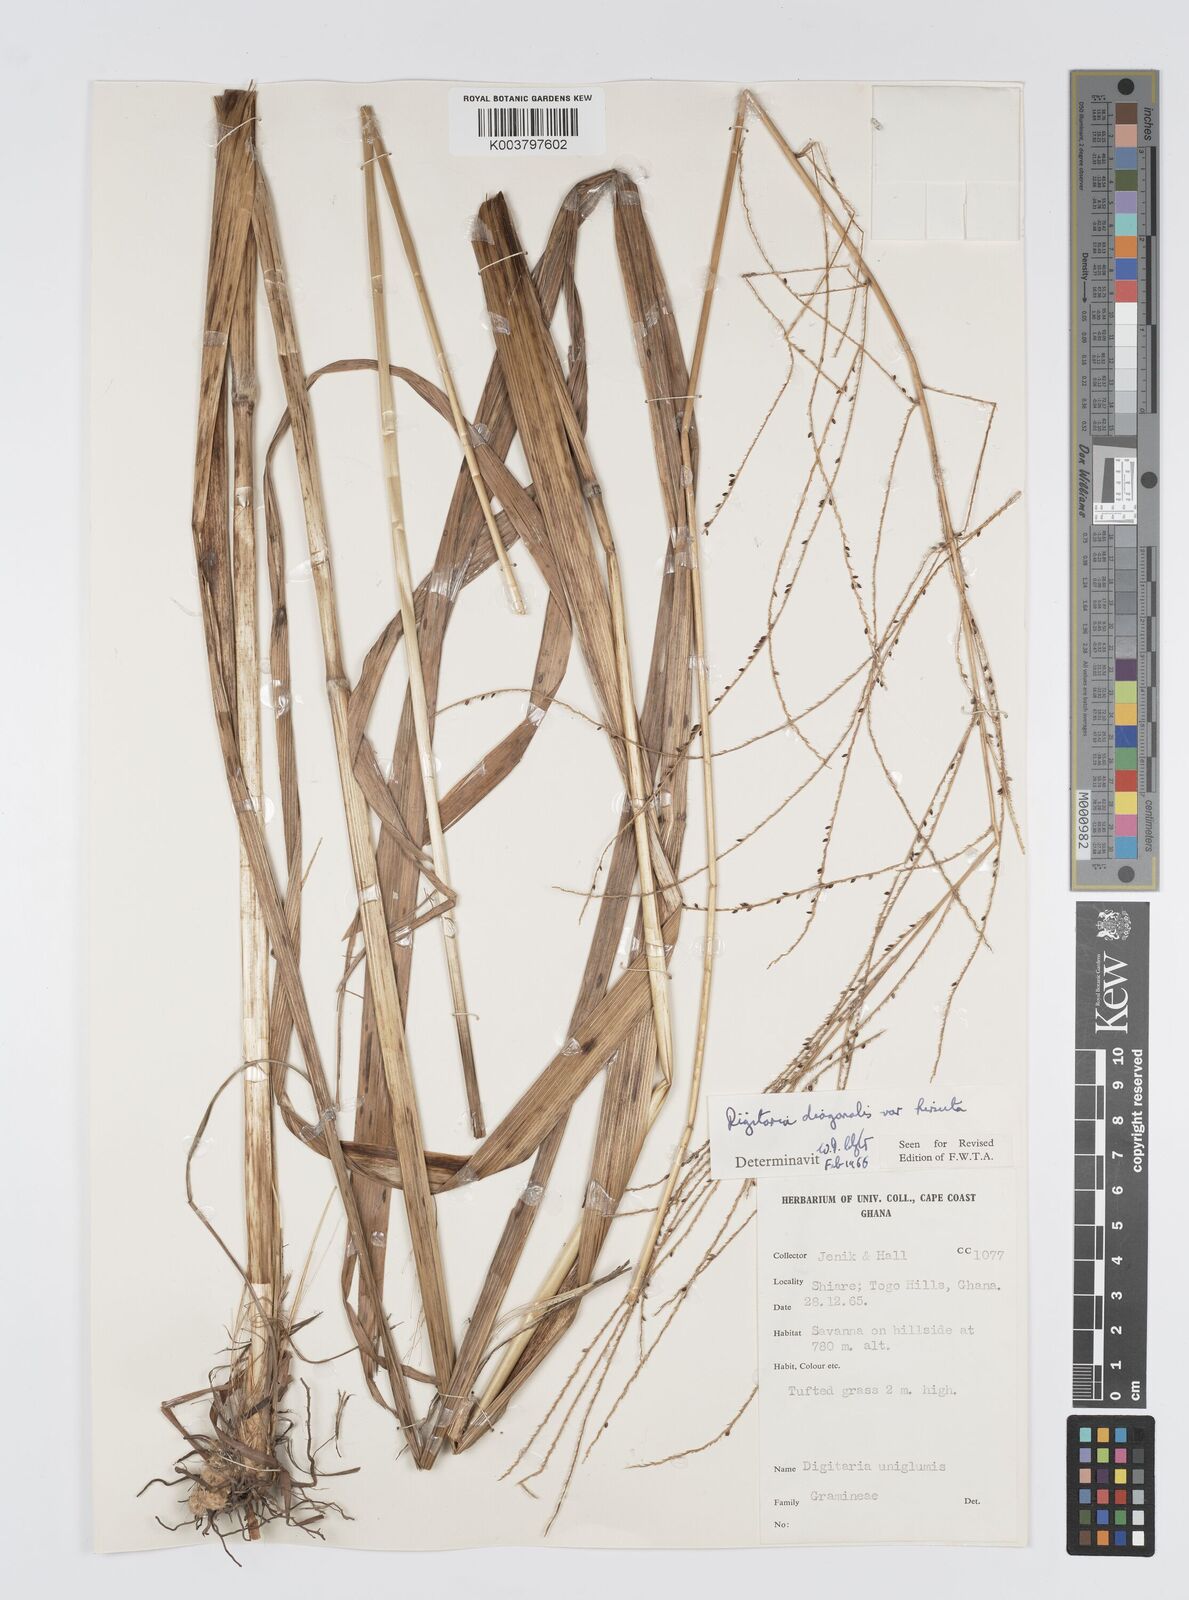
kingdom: Plantae
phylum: Tracheophyta
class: Liliopsida
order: Poales
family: Poaceae
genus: Digitaria
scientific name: Digitaria diagonalis
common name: Brown-seed finger grass
